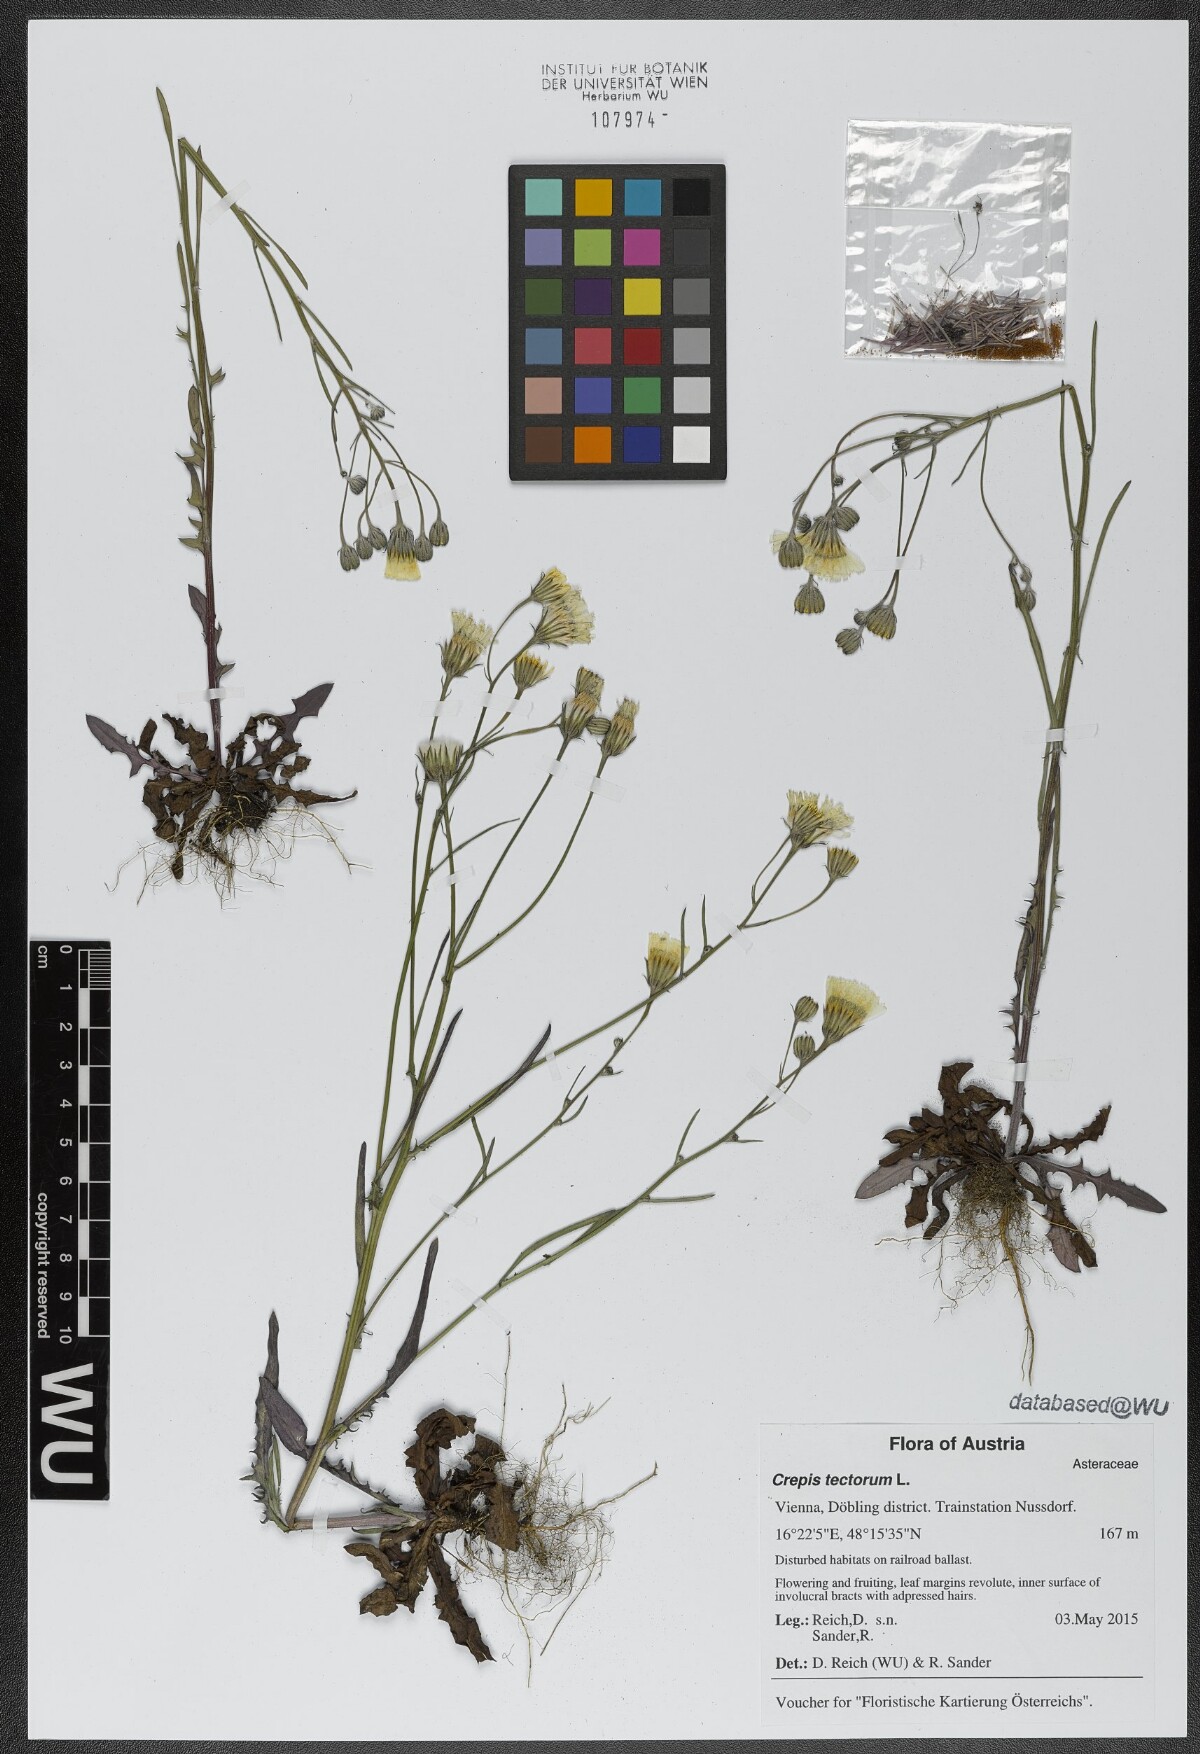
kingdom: Plantae
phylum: Tracheophyta
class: Magnoliopsida
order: Asterales
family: Asteraceae
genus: Crepis
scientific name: Crepis tectorum
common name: Narrow-leaved hawk's-beard
